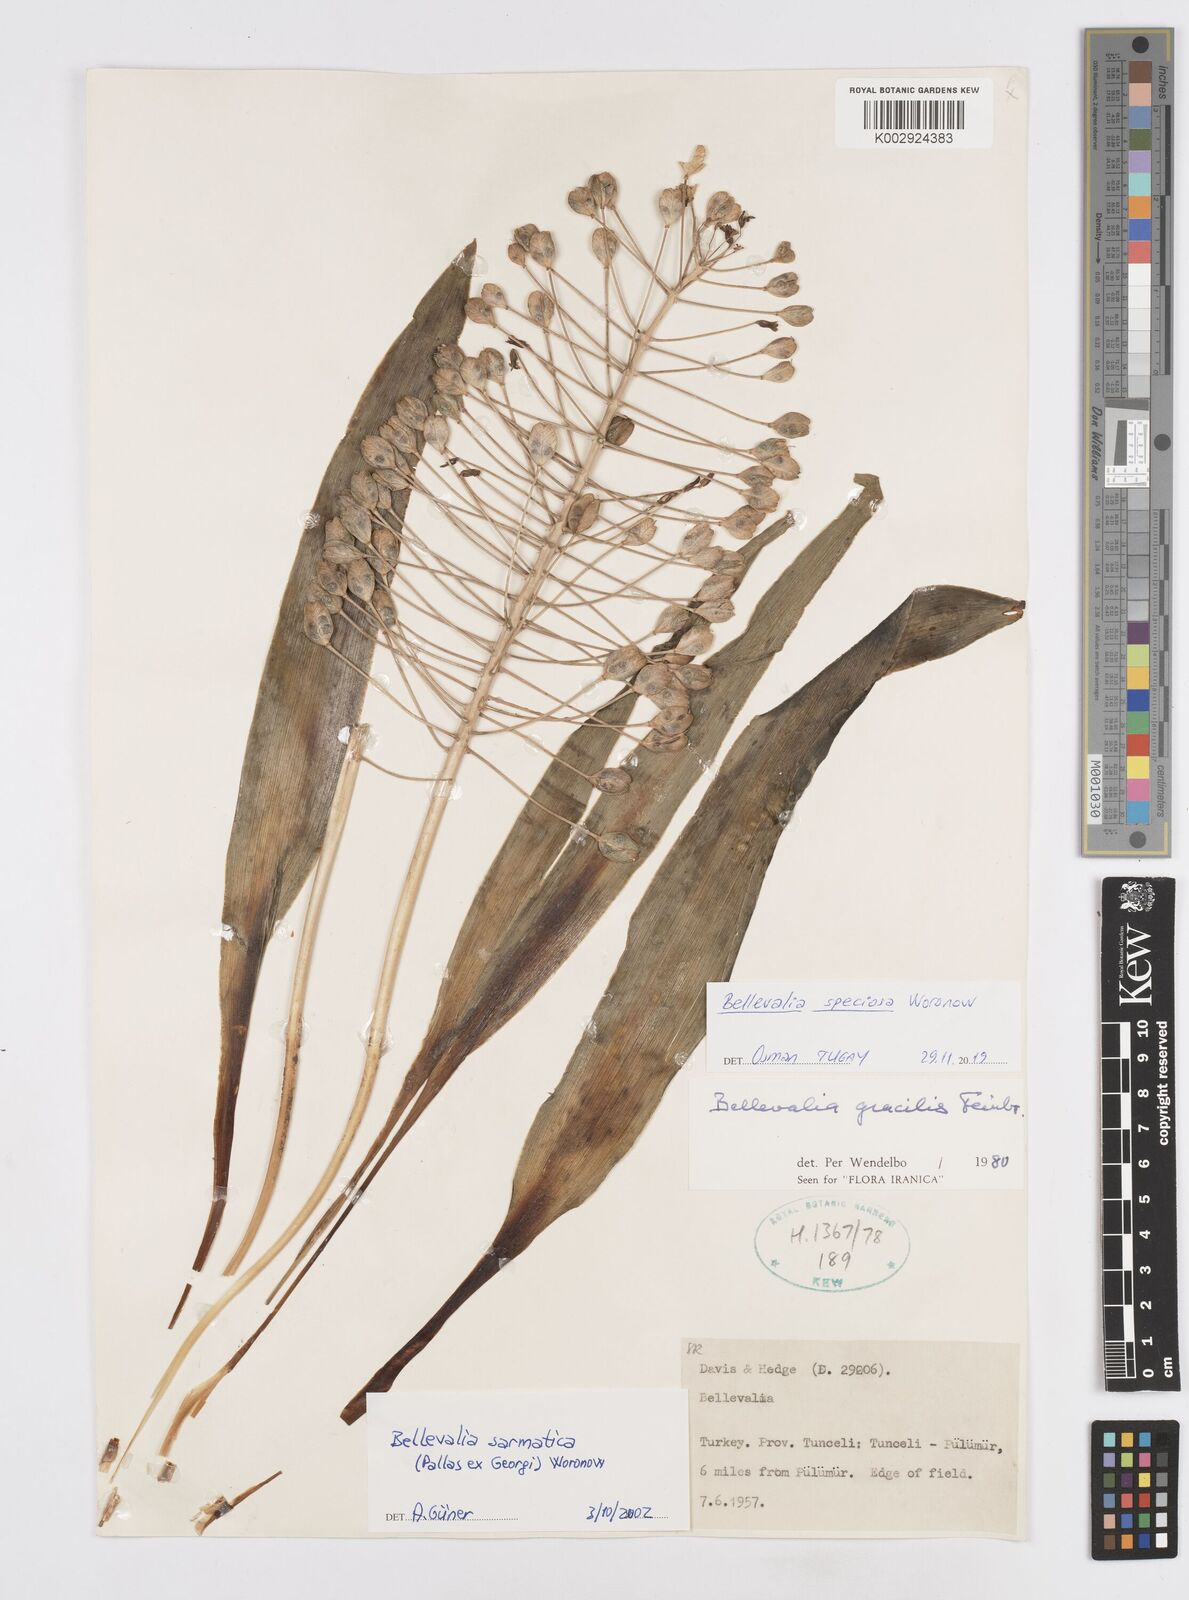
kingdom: Plantae
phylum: Tracheophyta
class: Liliopsida
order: Asparagales
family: Asparagaceae
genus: Bellevalia
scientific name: Bellevalia speciosa
